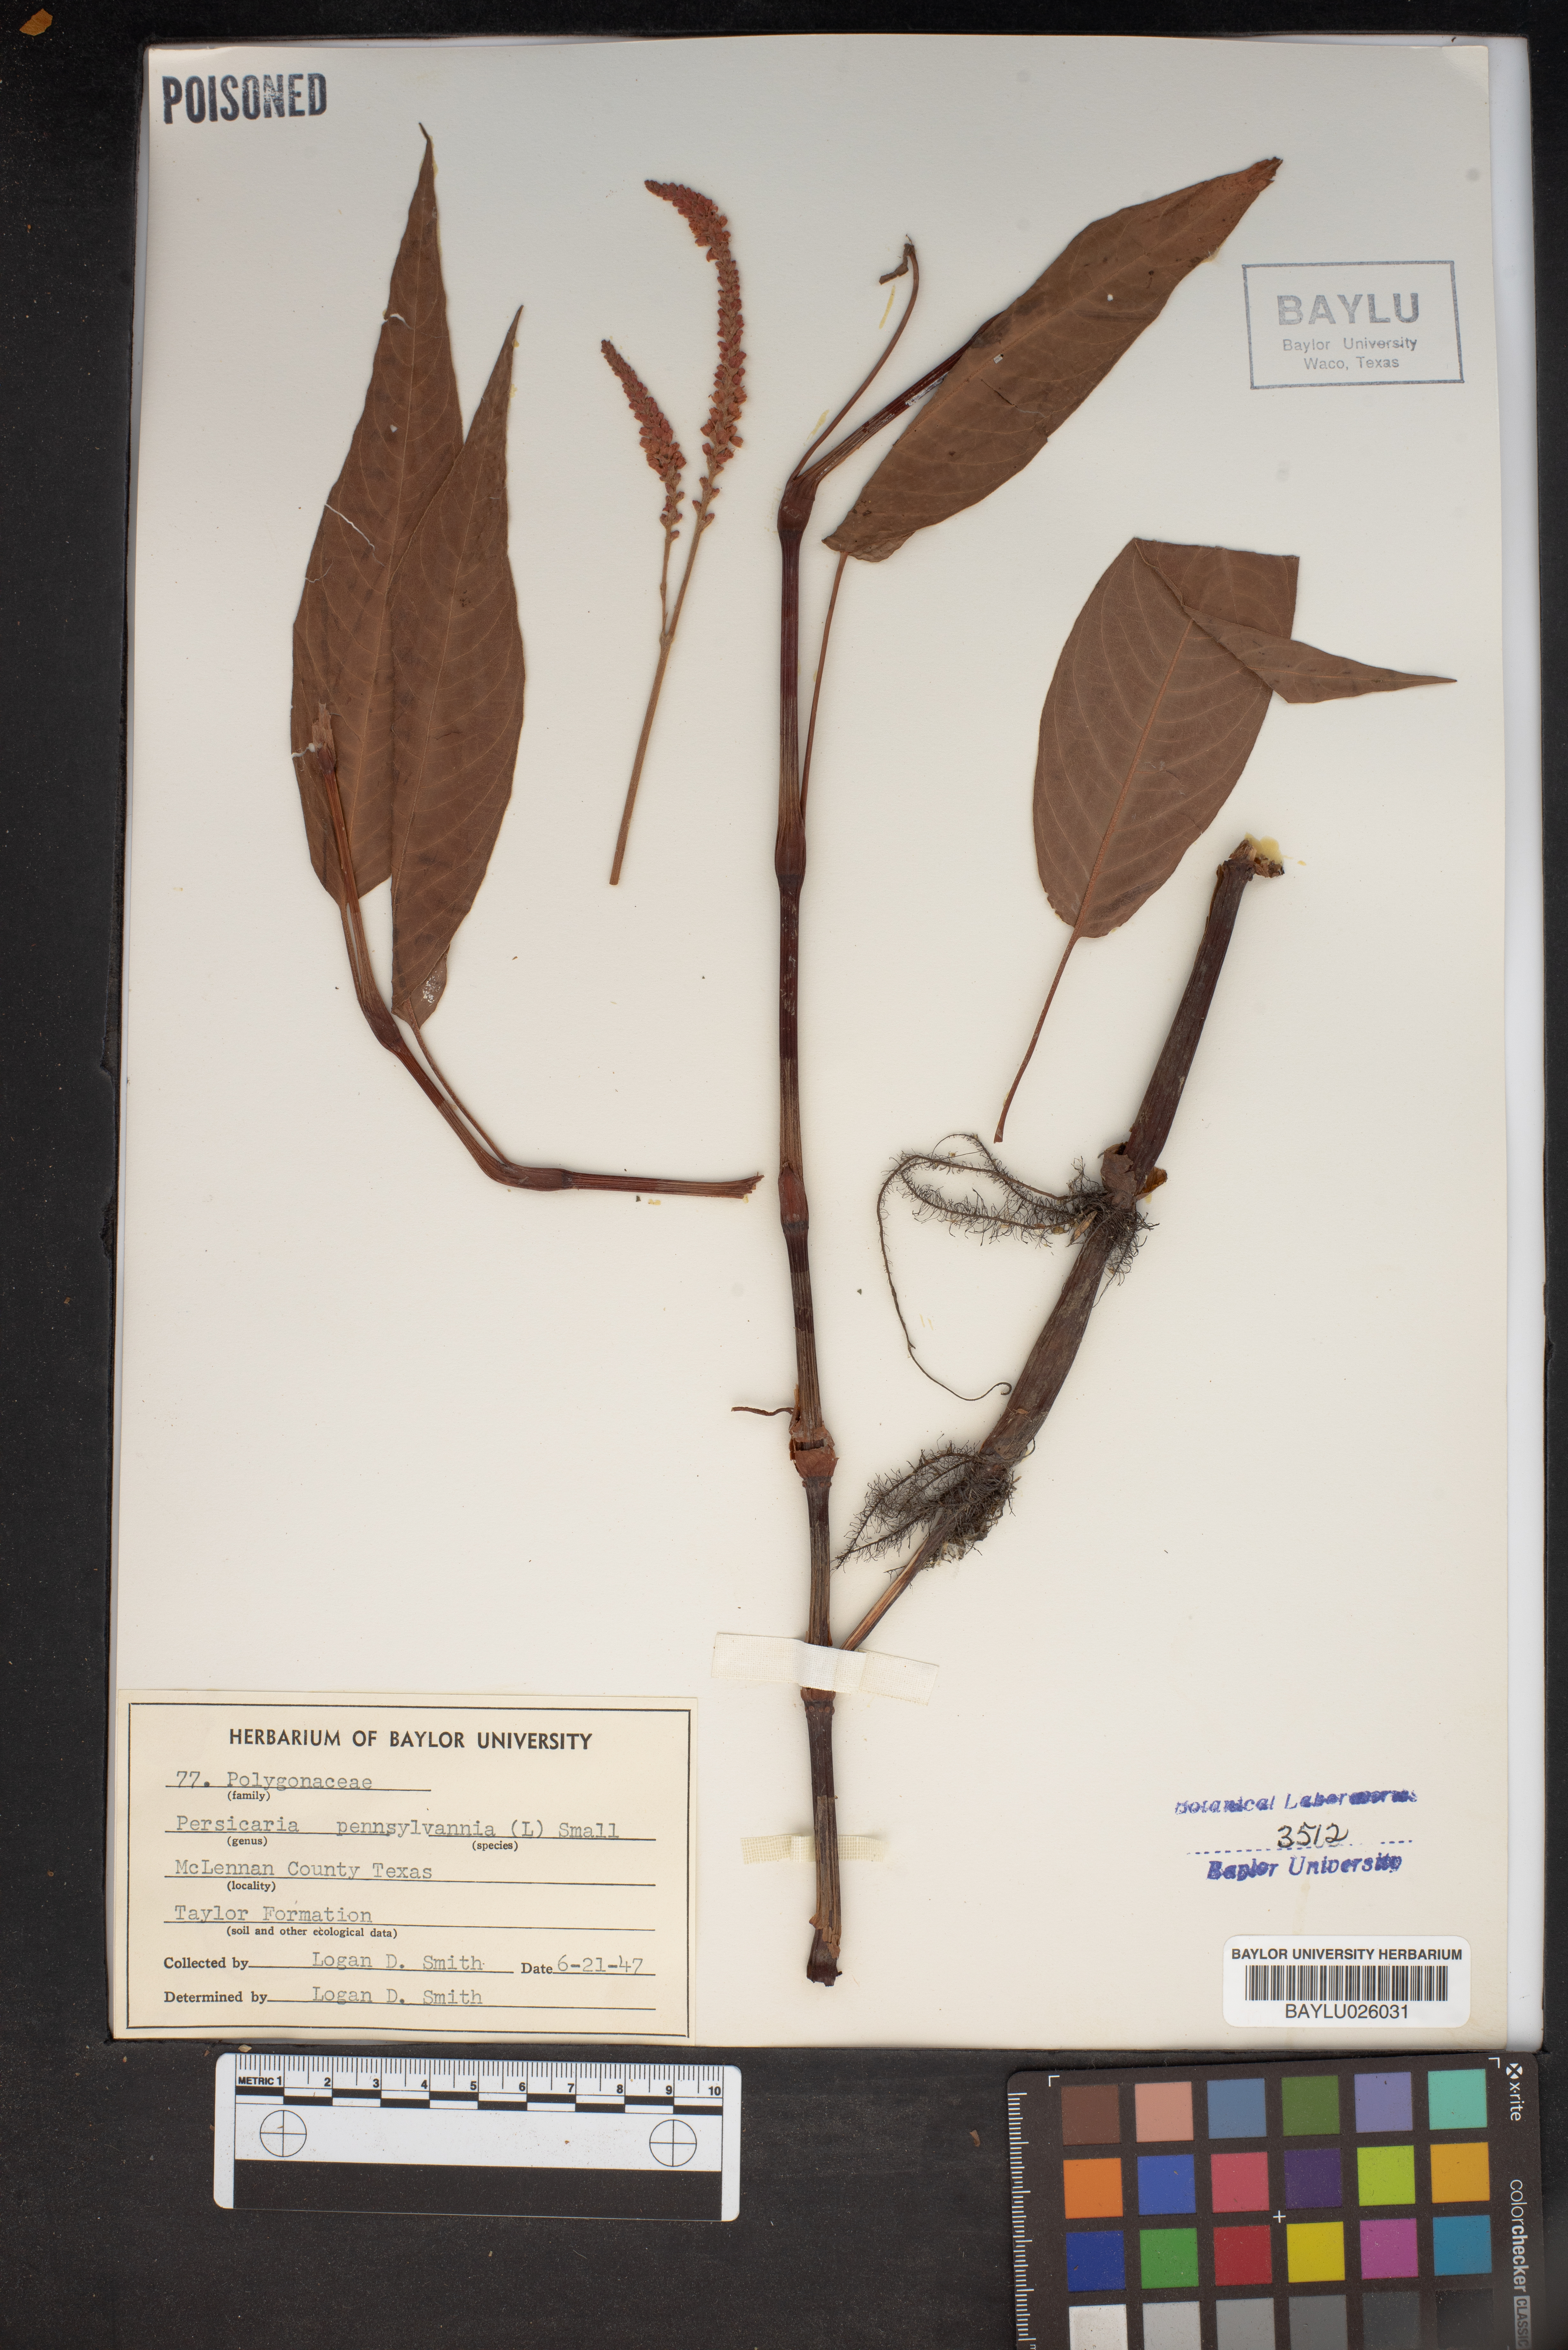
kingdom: Plantae
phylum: Tracheophyta
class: Magnoliopsida
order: Caryophyllales
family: Polygonaceae
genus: Persicaria
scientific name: Persicaria pensylvanica
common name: Pinkweed
